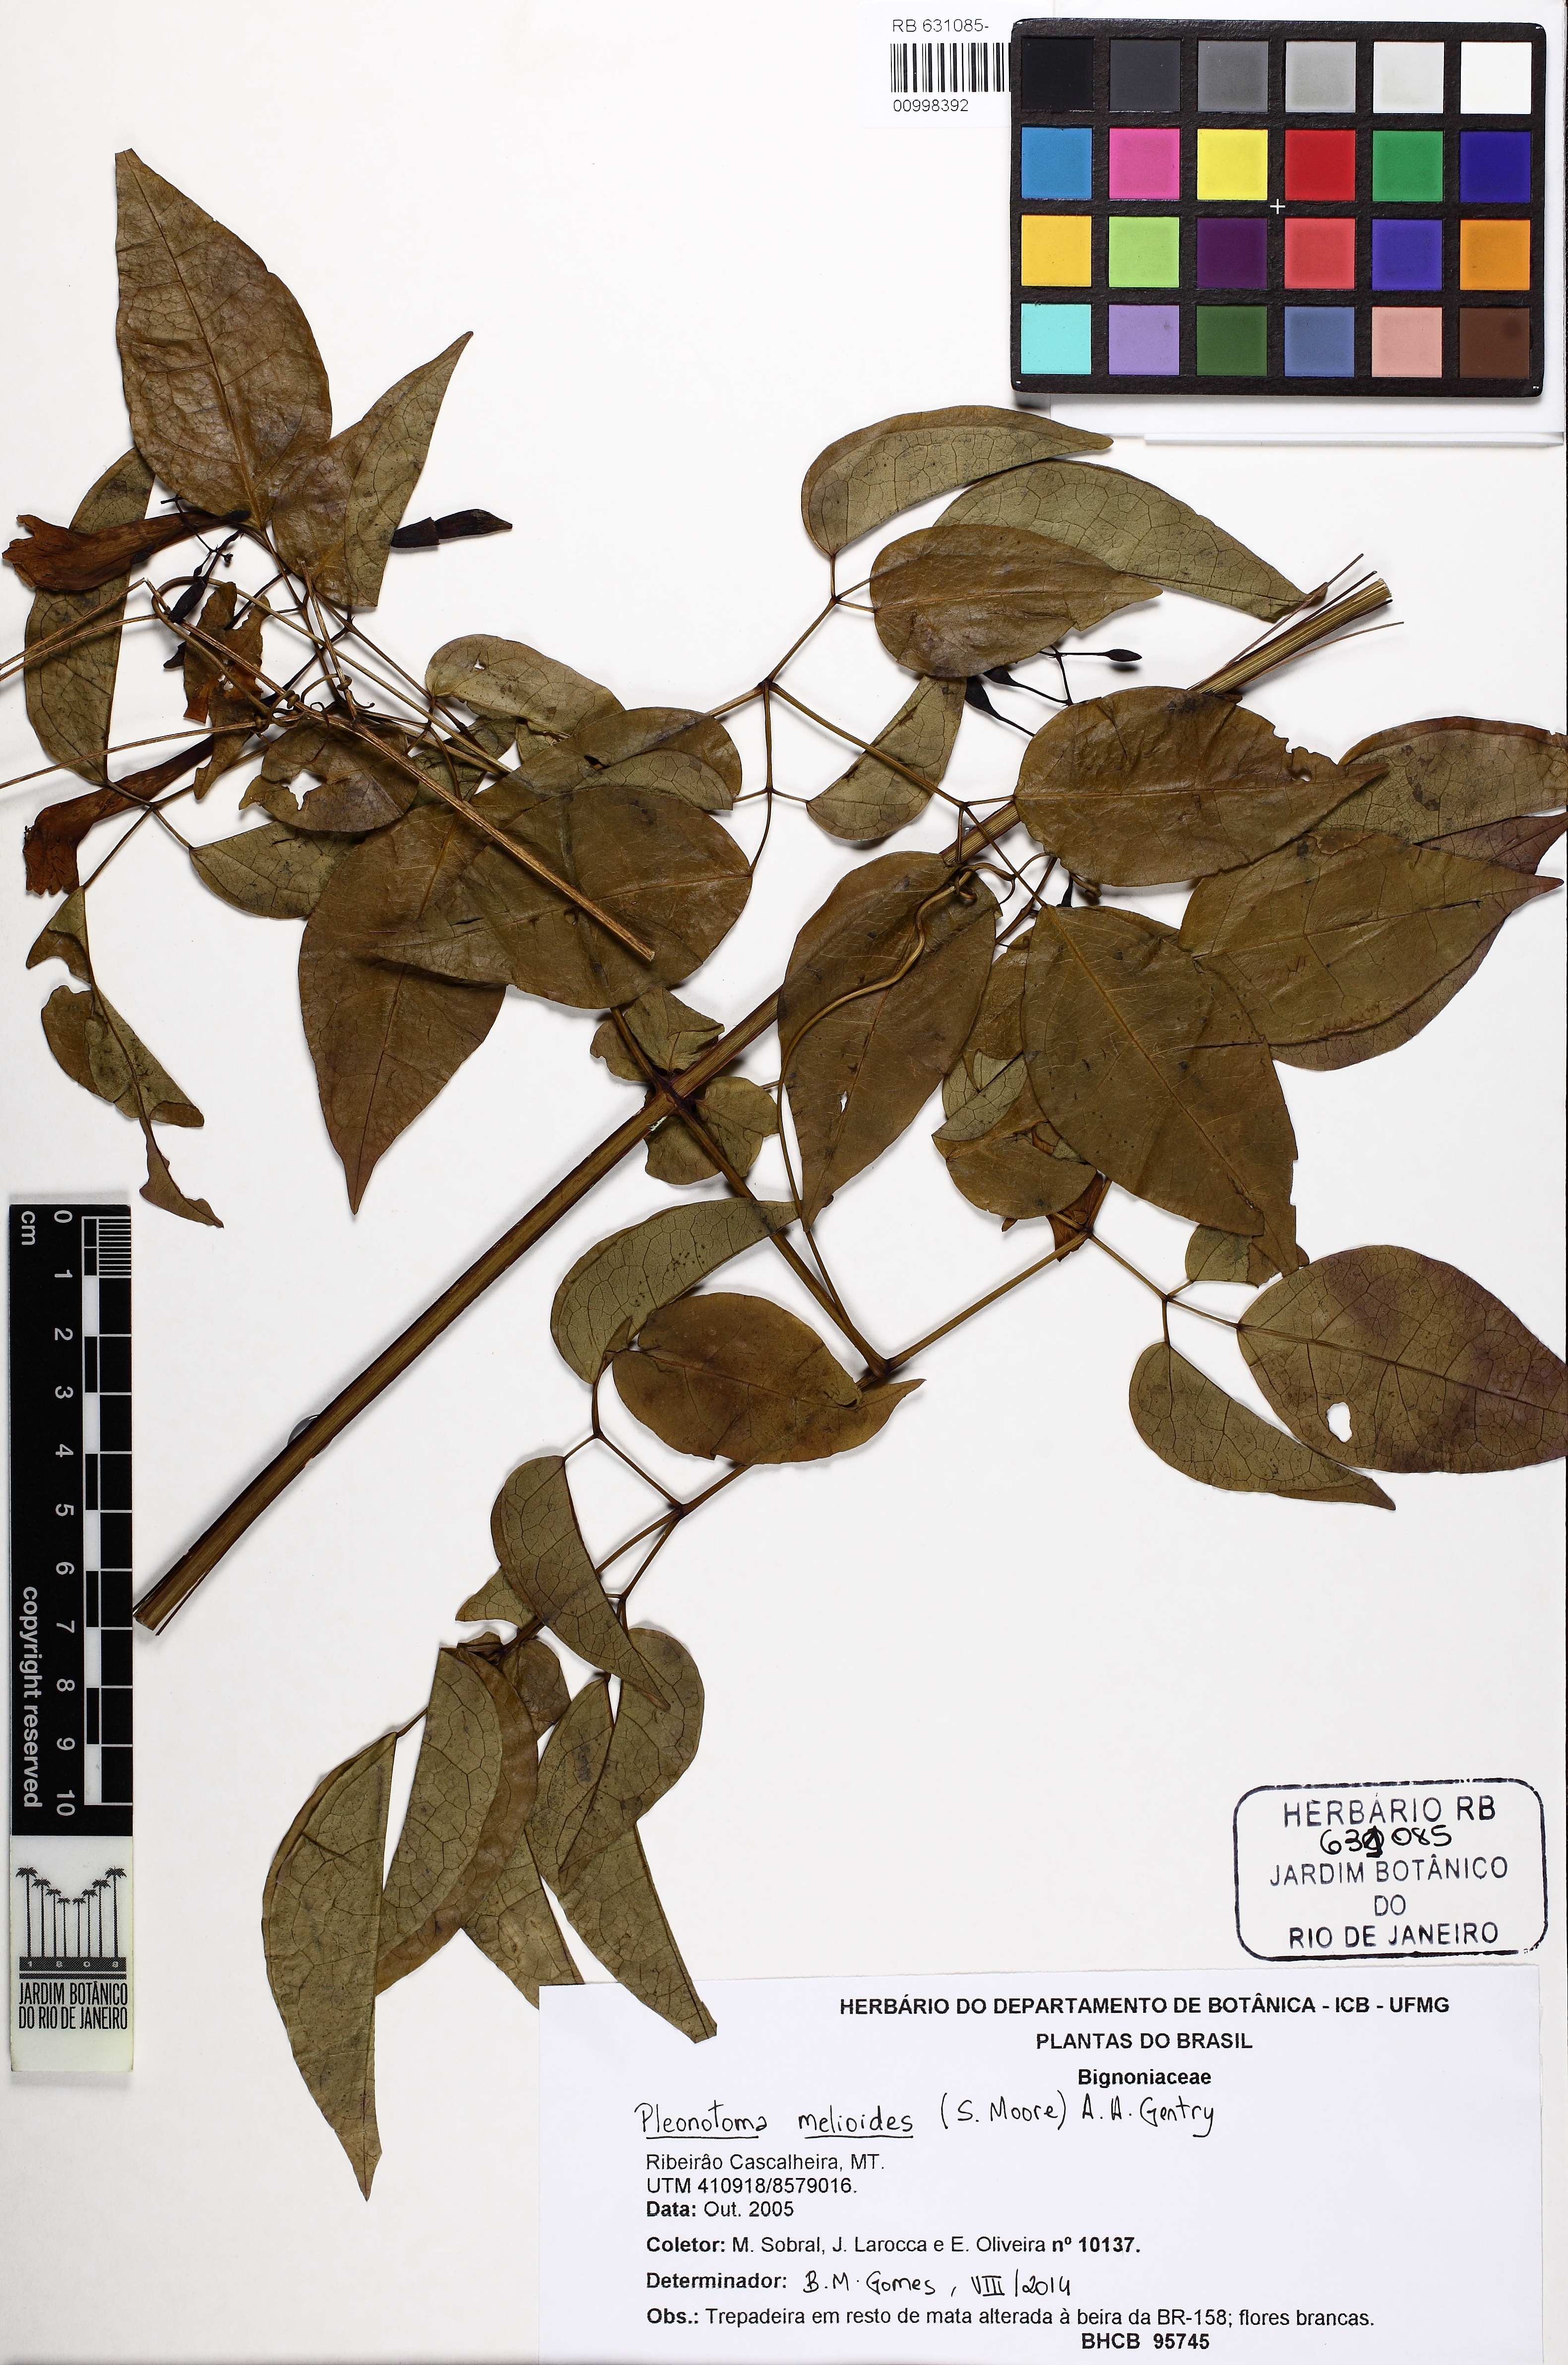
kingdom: Plantae
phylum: Tracheophyta
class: Magnoliopsida
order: Lamiales
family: Bignoniaceae
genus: Pleonotoma
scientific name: Pleonotoma melioides
